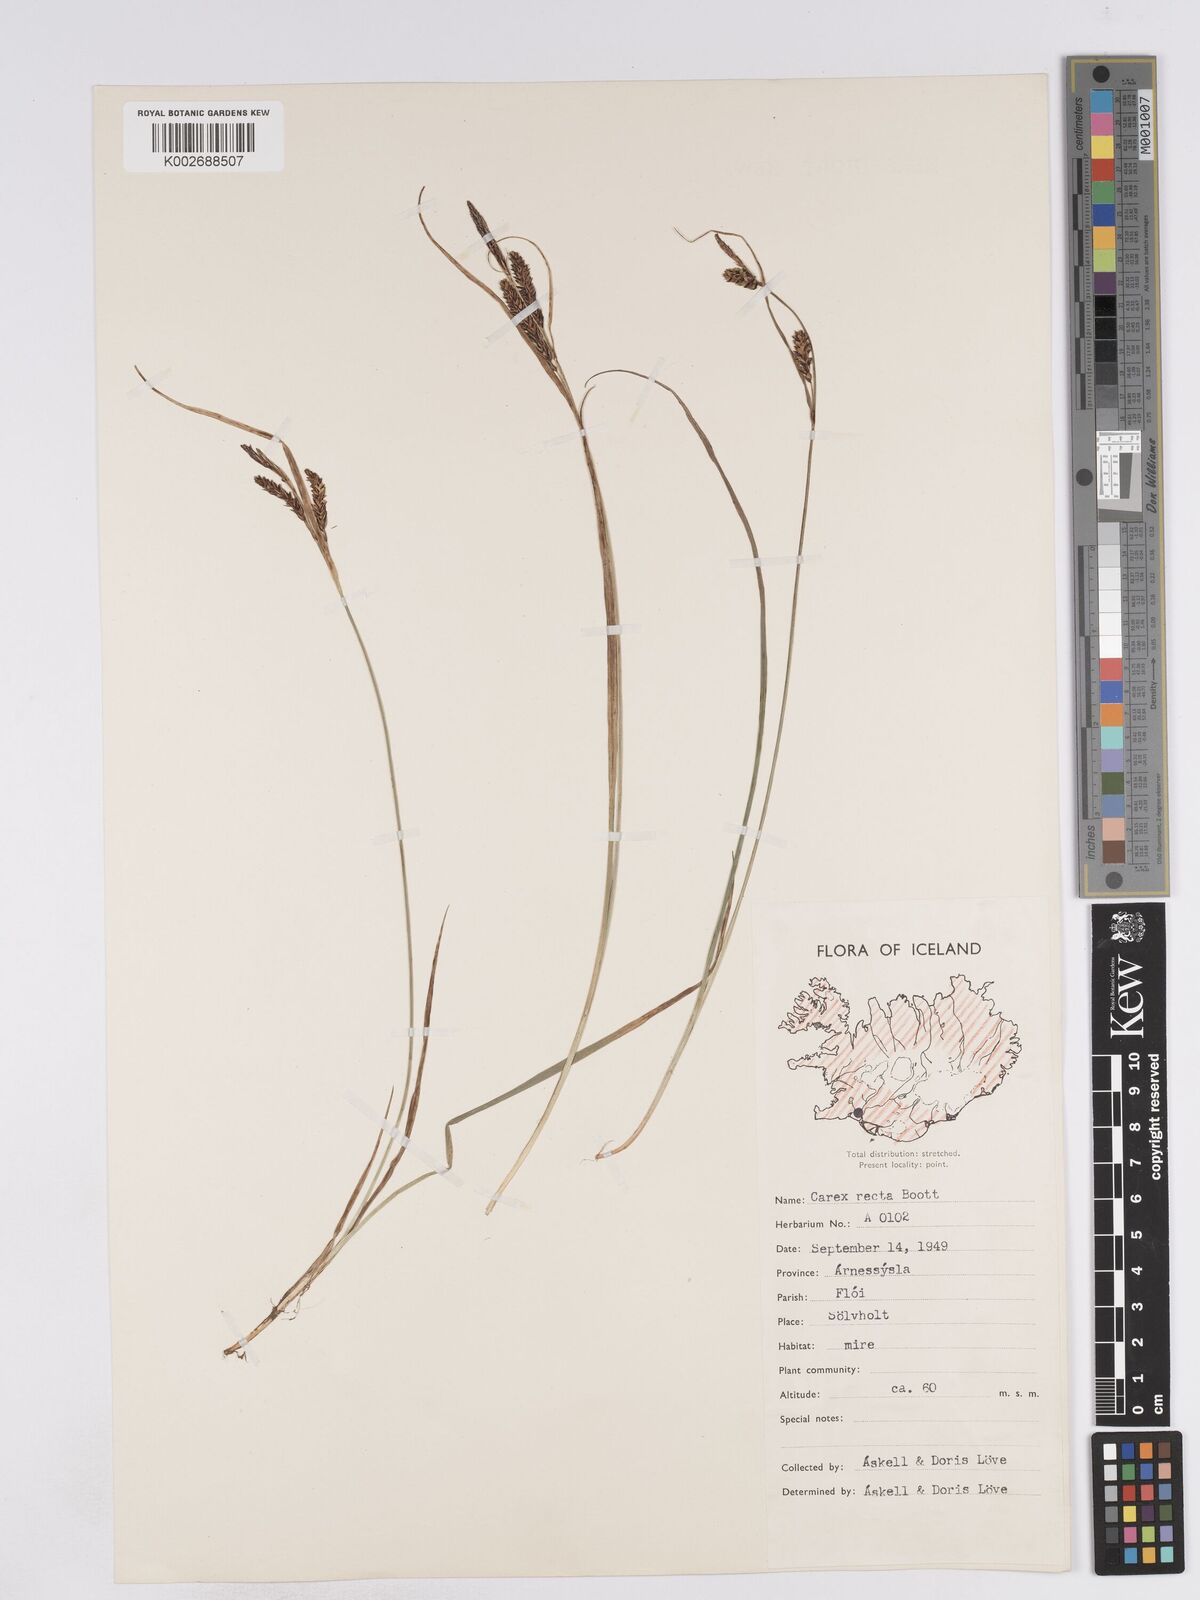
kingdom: Plantae
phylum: Tracheophyta
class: Liliopsida
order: Poales
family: Cyperaceae
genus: Carex
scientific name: Carex recta
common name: Estuarine sedge
